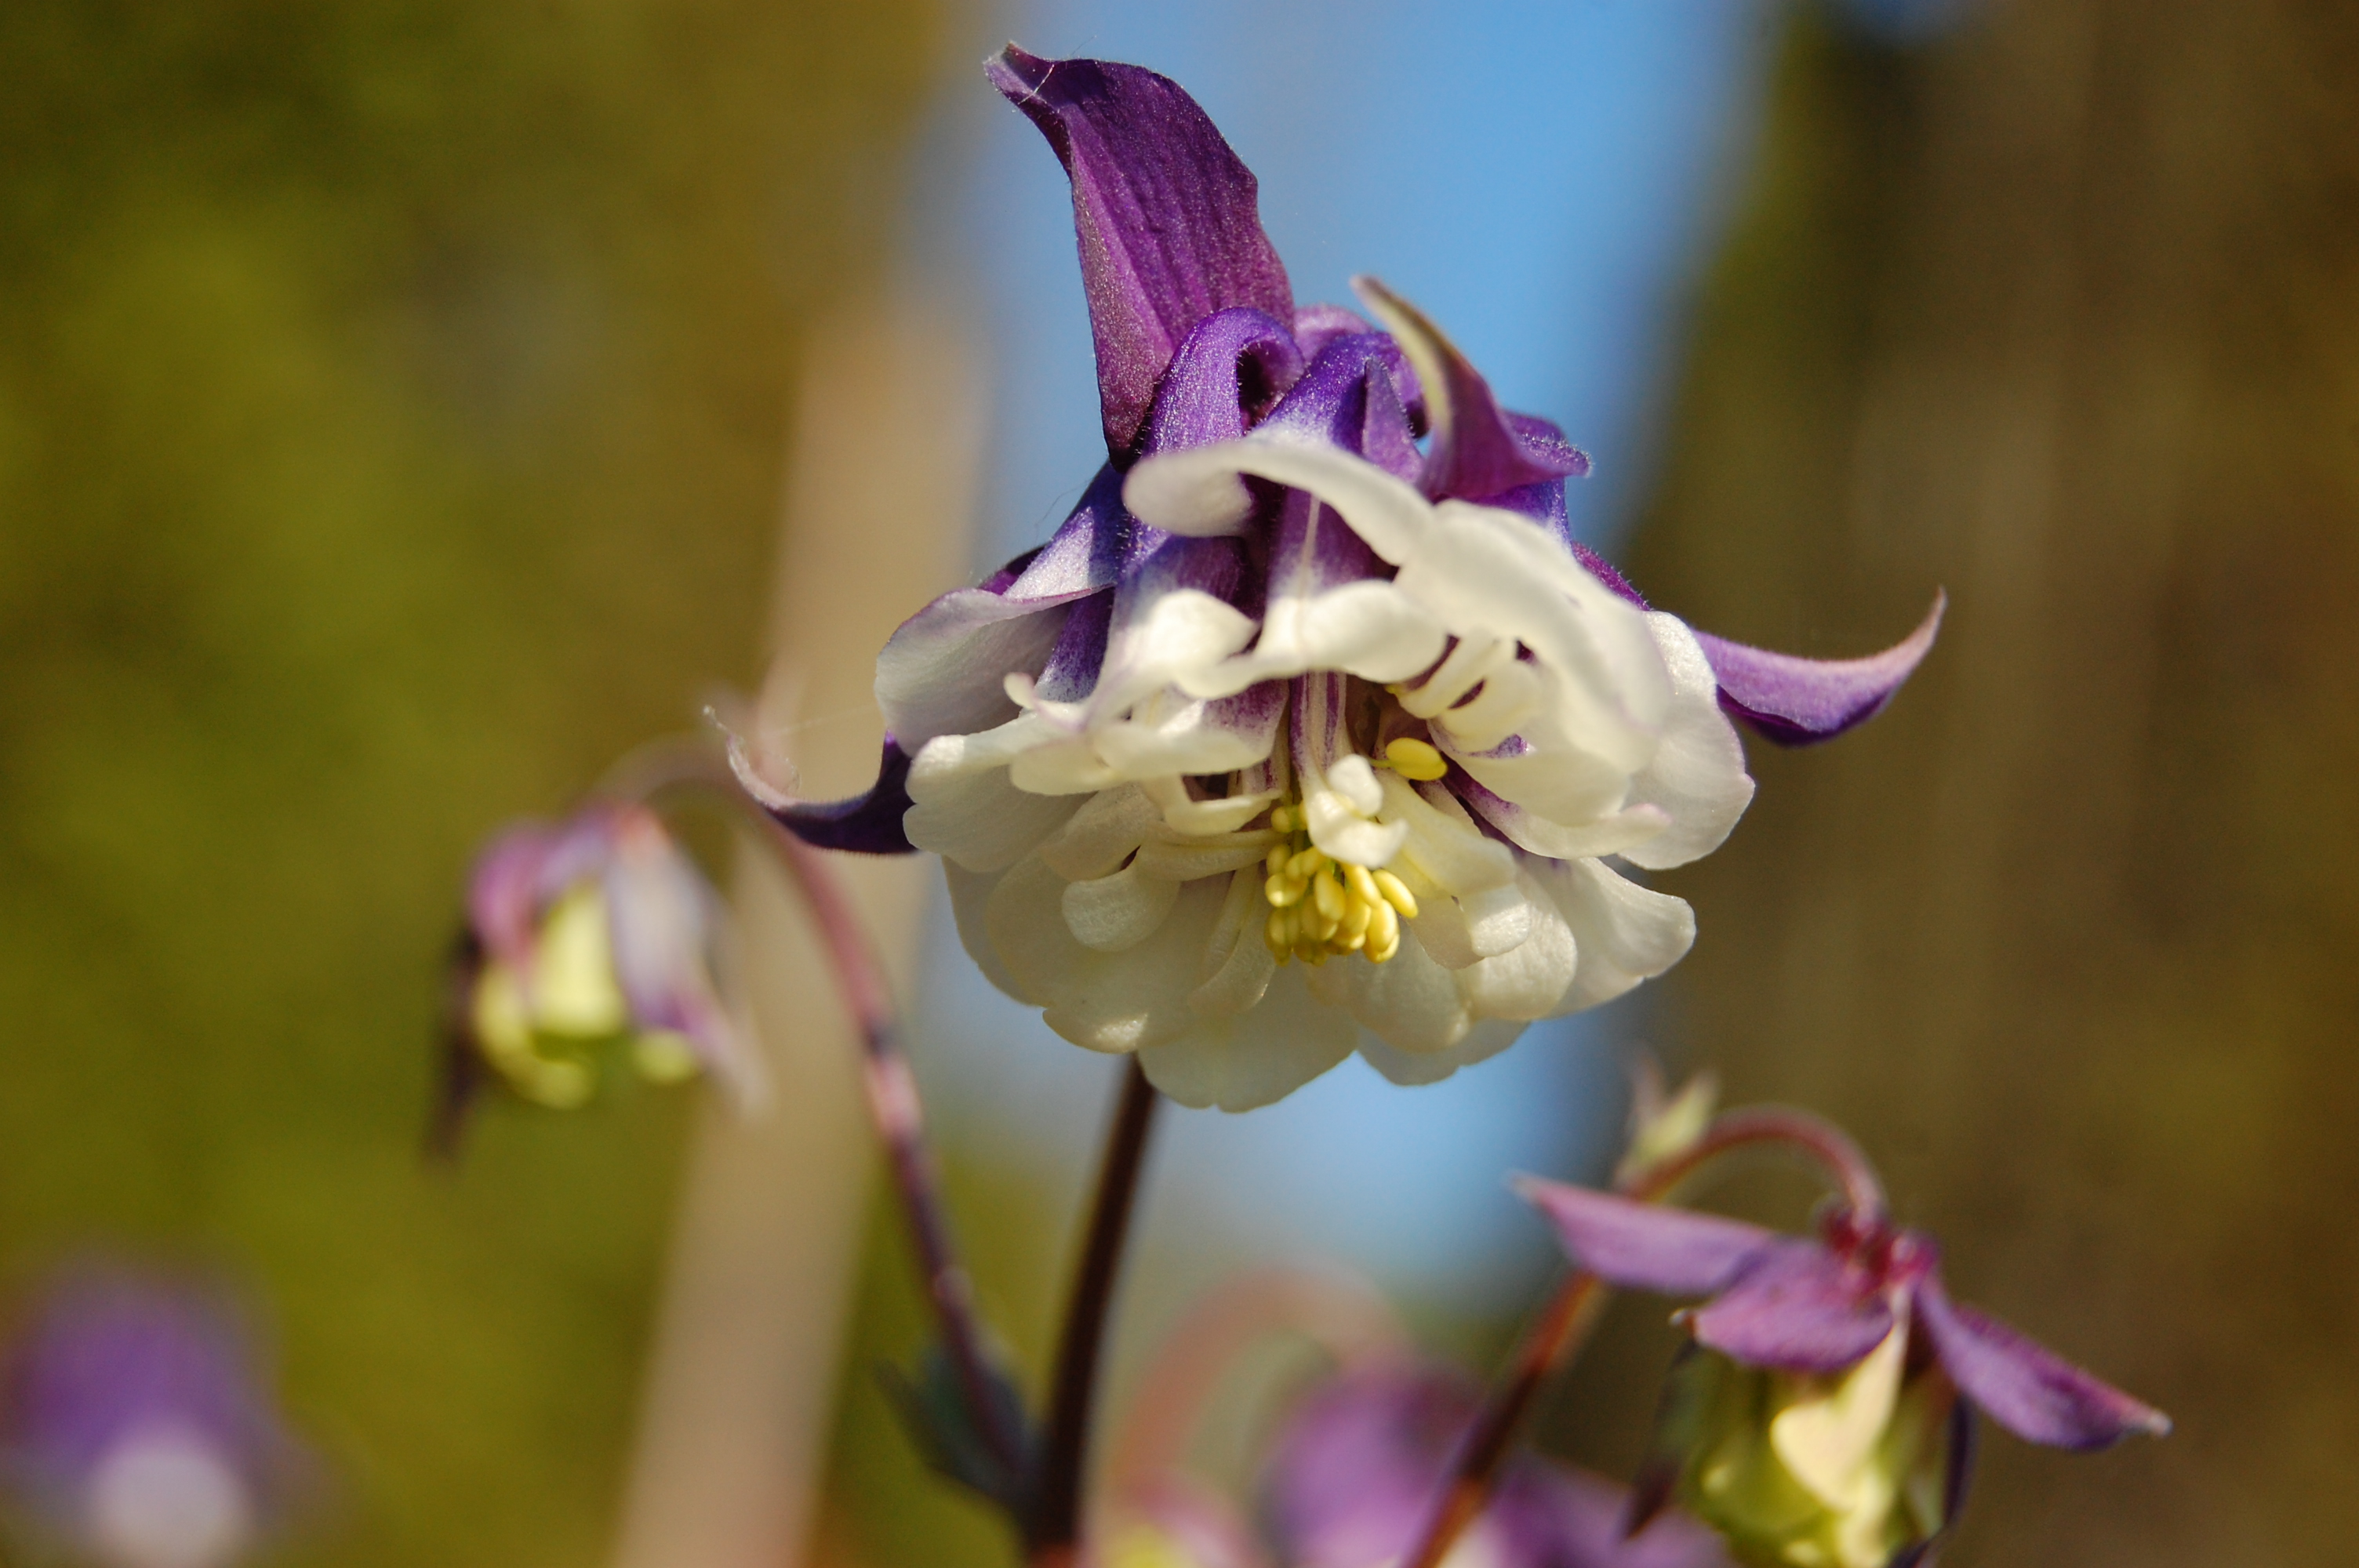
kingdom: Plantae
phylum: Tracheophyta
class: Magnoliopsida
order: Ranunculales
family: Ranunculaceae
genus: Aquilegia
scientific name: Aquilegia vulgaris
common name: Columbine
